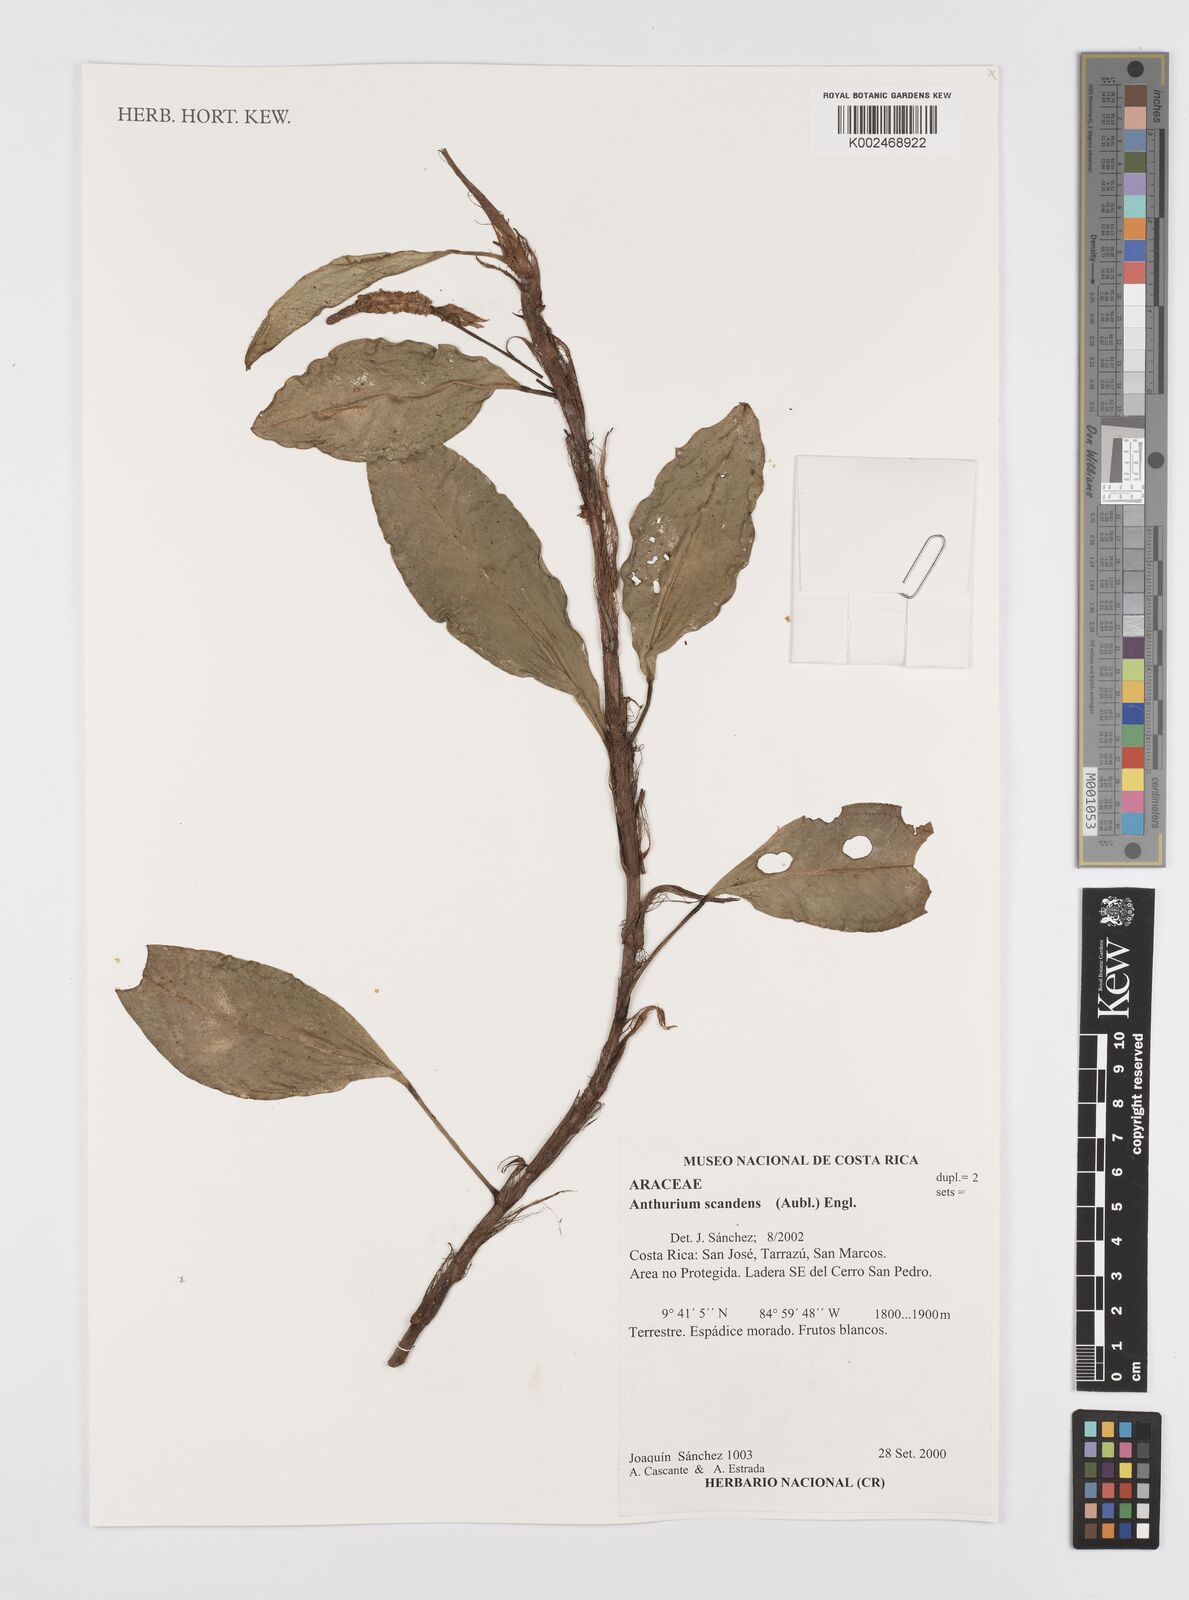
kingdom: Plantae
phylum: Tracheophyta
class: Liliopsida
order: Alismatales
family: Araceae
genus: Anthurium
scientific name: Anthurium scandens
